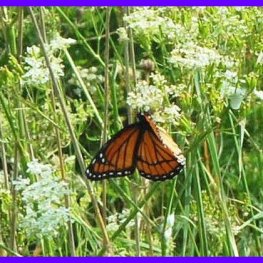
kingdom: Animalia
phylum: Arthropoda
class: Insecta
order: Lepidoptera
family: Nymphalidae
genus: Limenitis
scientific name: Limenitis archippus
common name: Viceroy
